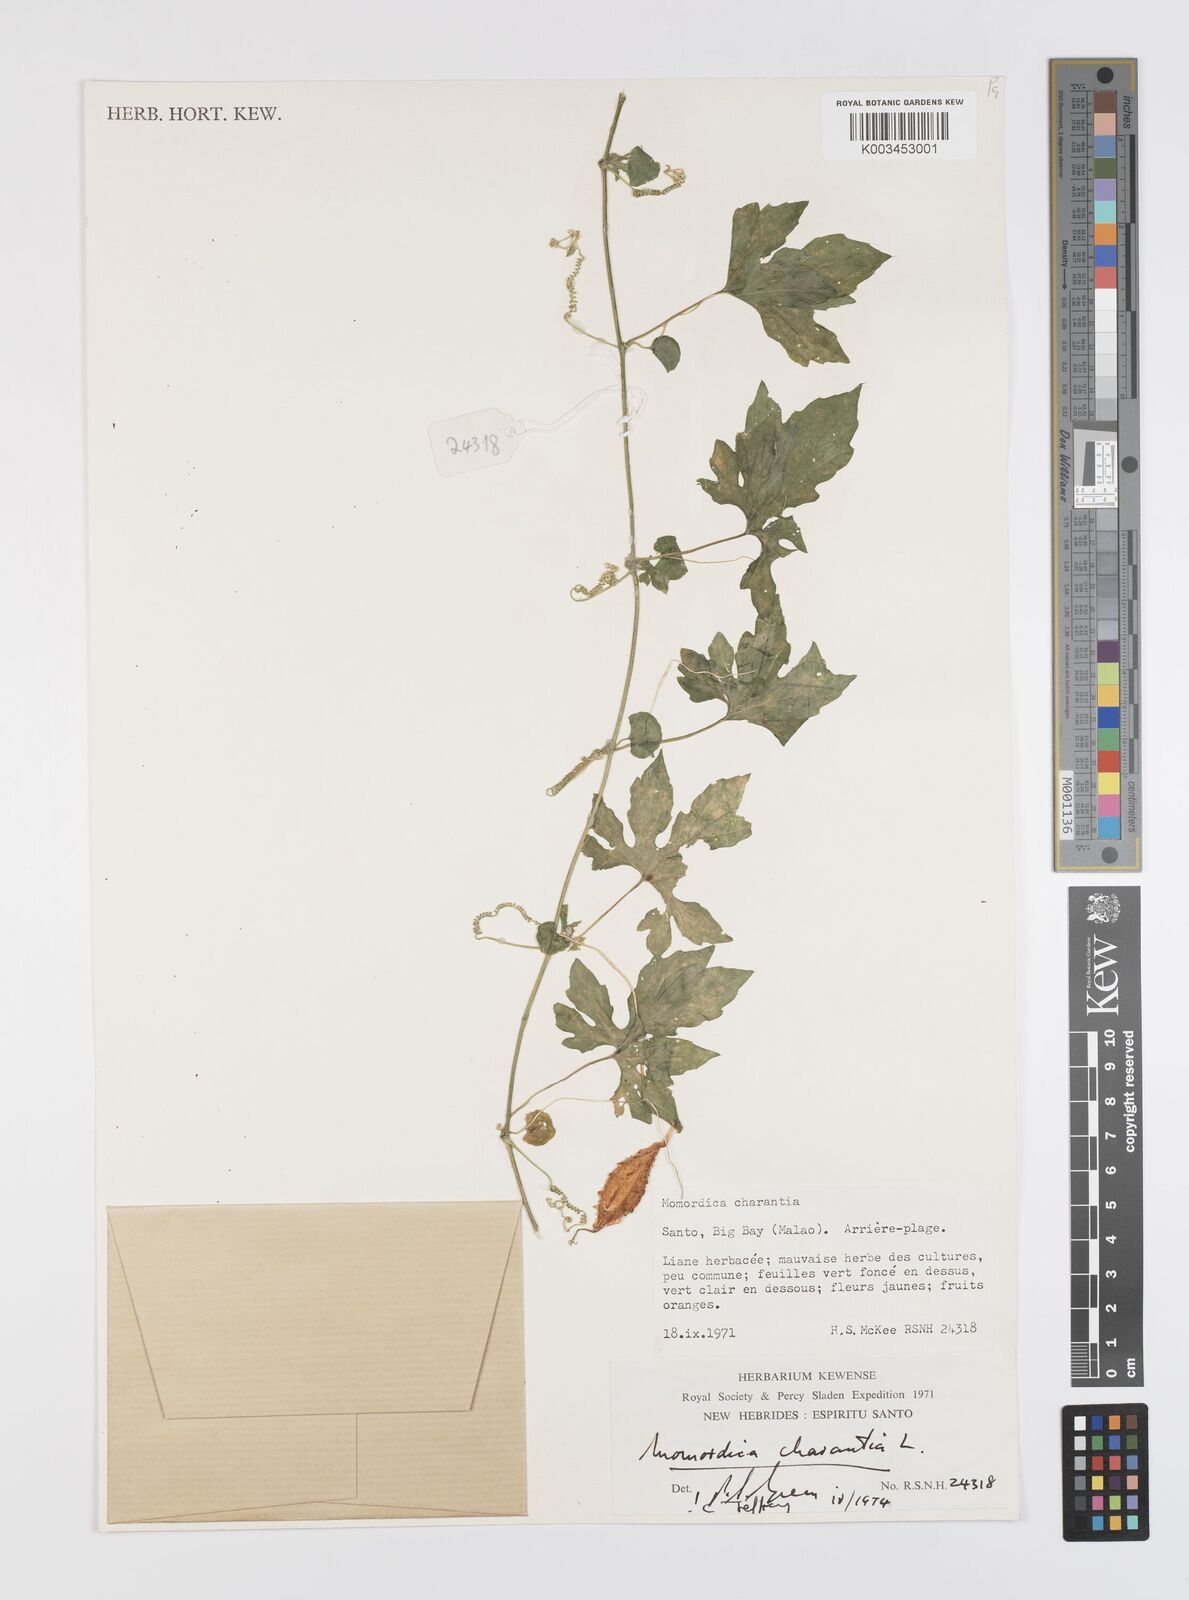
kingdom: Plantae
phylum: Tracheophyta
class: Magnoliopsida
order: Cucurbitales
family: Cucurbitaceae
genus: Momordica
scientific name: Momordica charantia
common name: Balsampear
